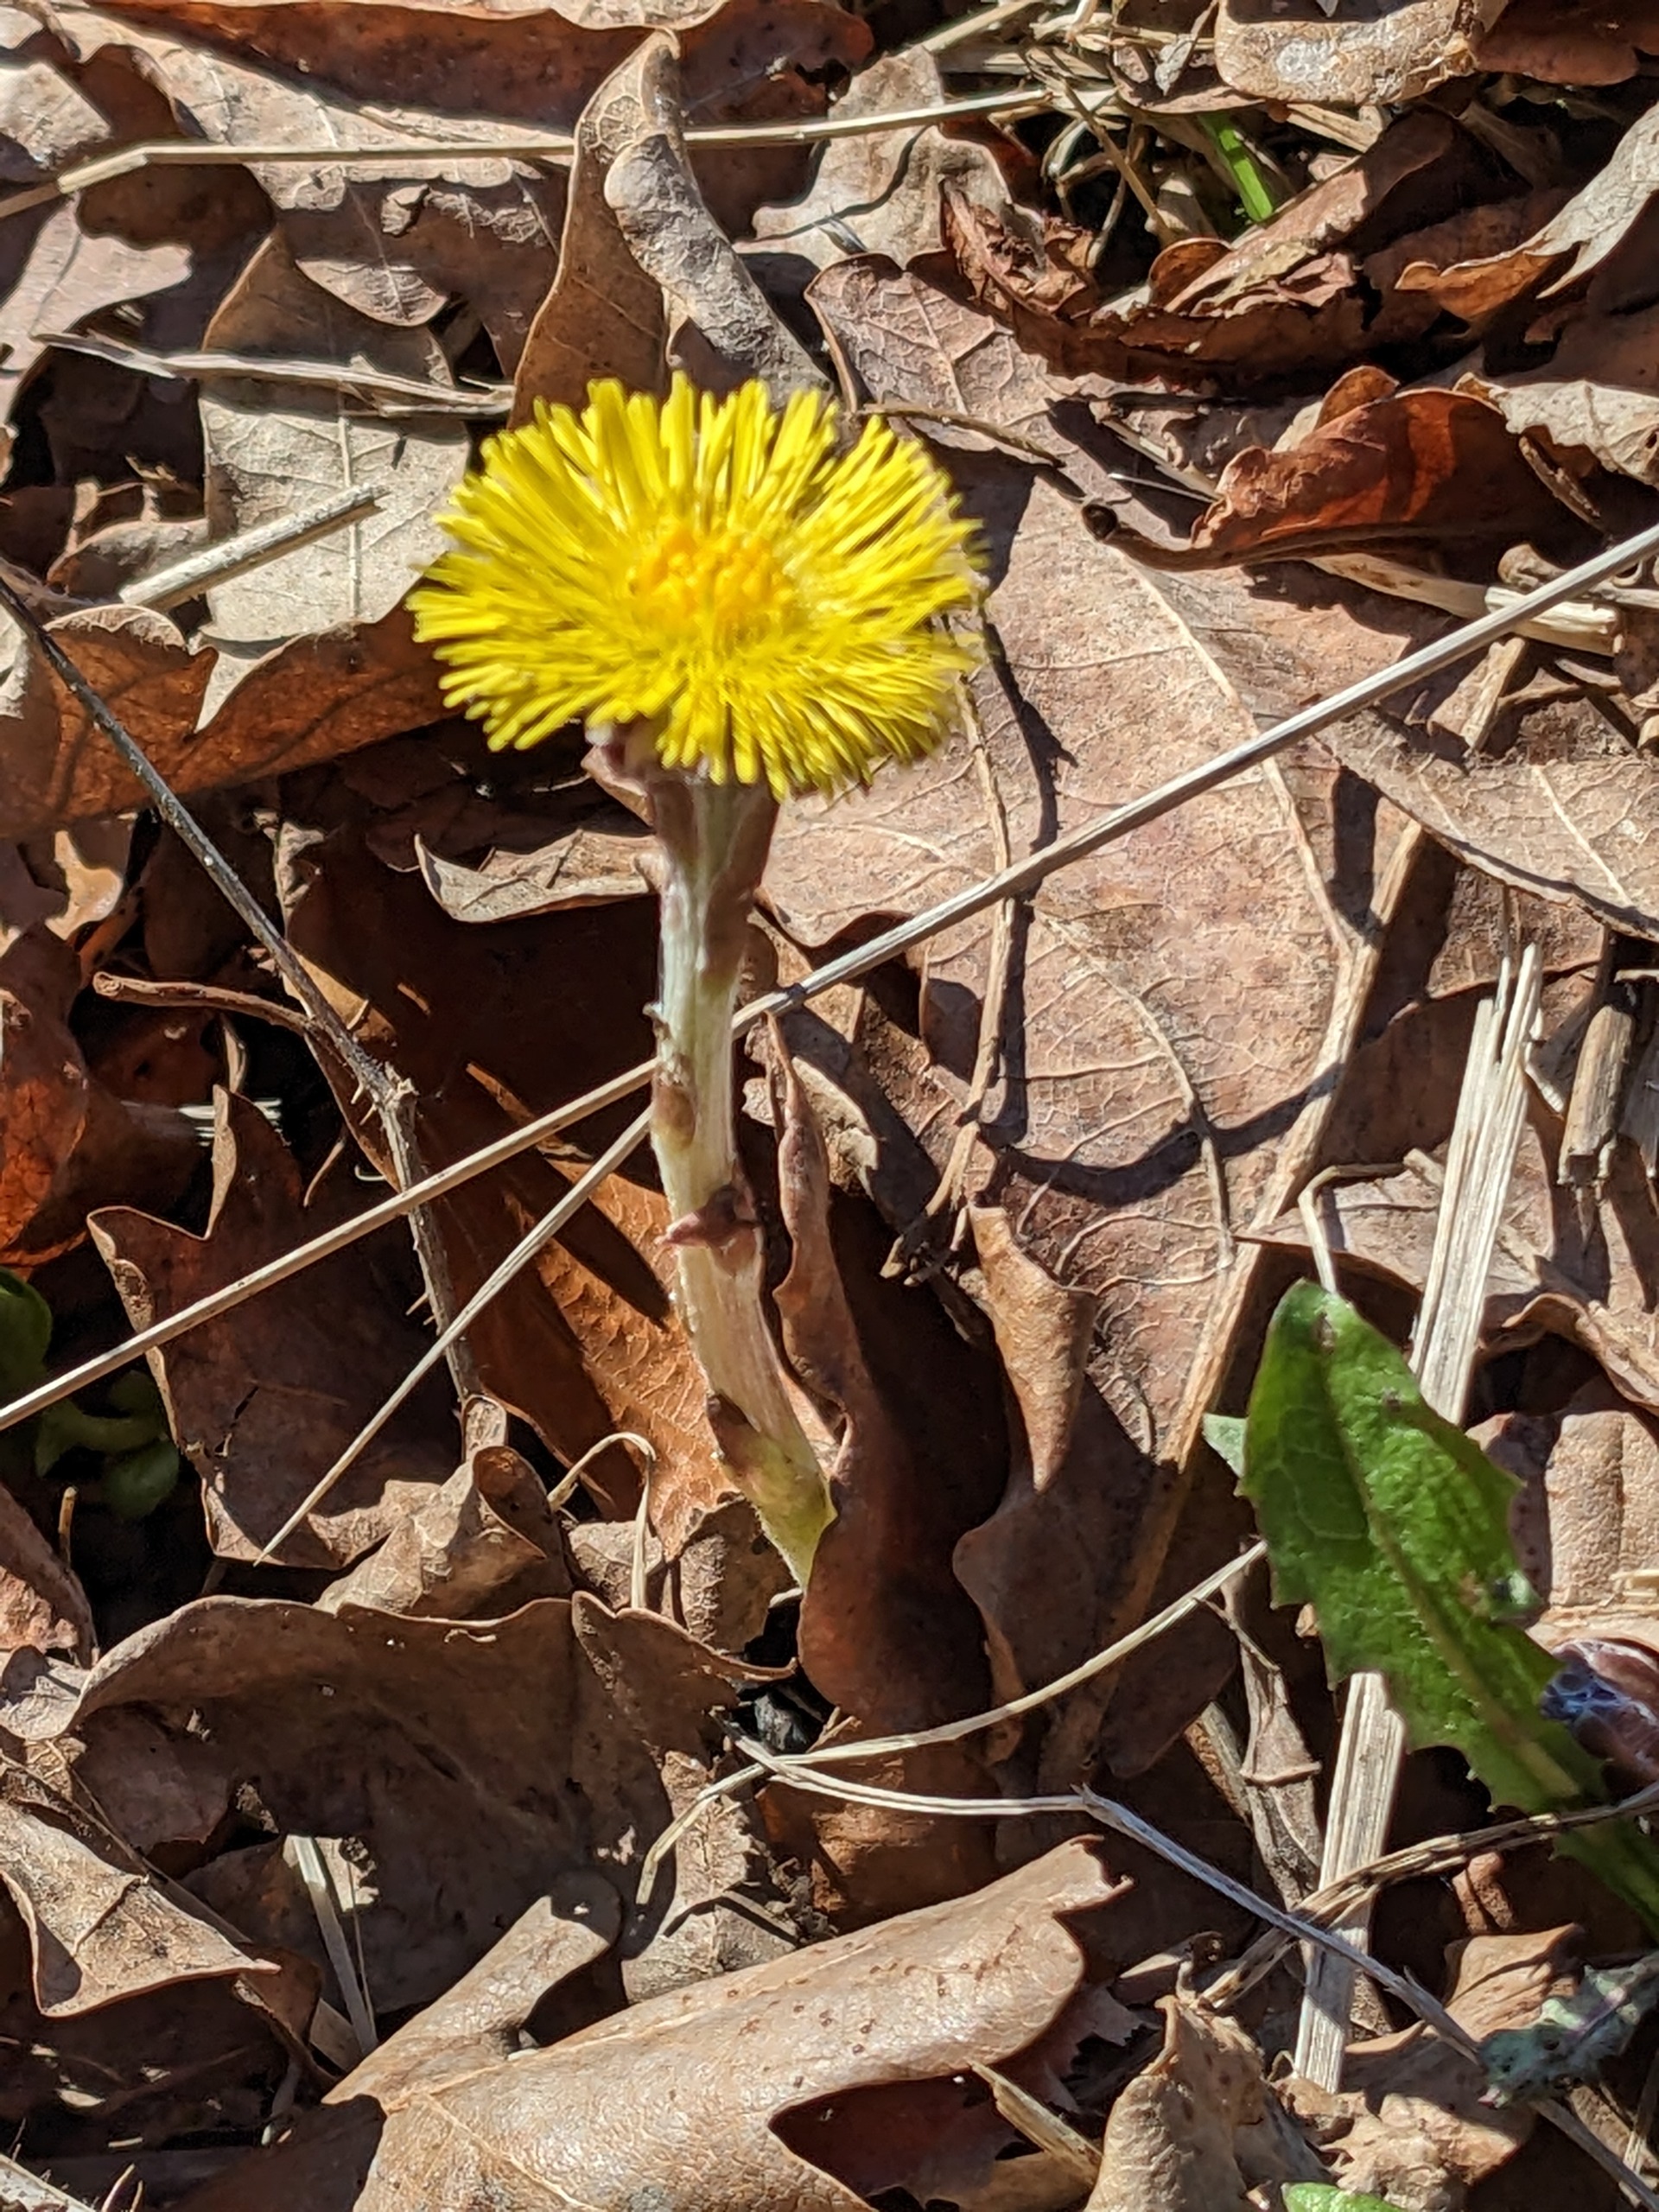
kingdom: Plantae
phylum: Tracheophyta
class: Magnoliopsida
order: Asterales
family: Asteraceae
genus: Tussilago
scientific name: Tussilago farfara
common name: Følfod
